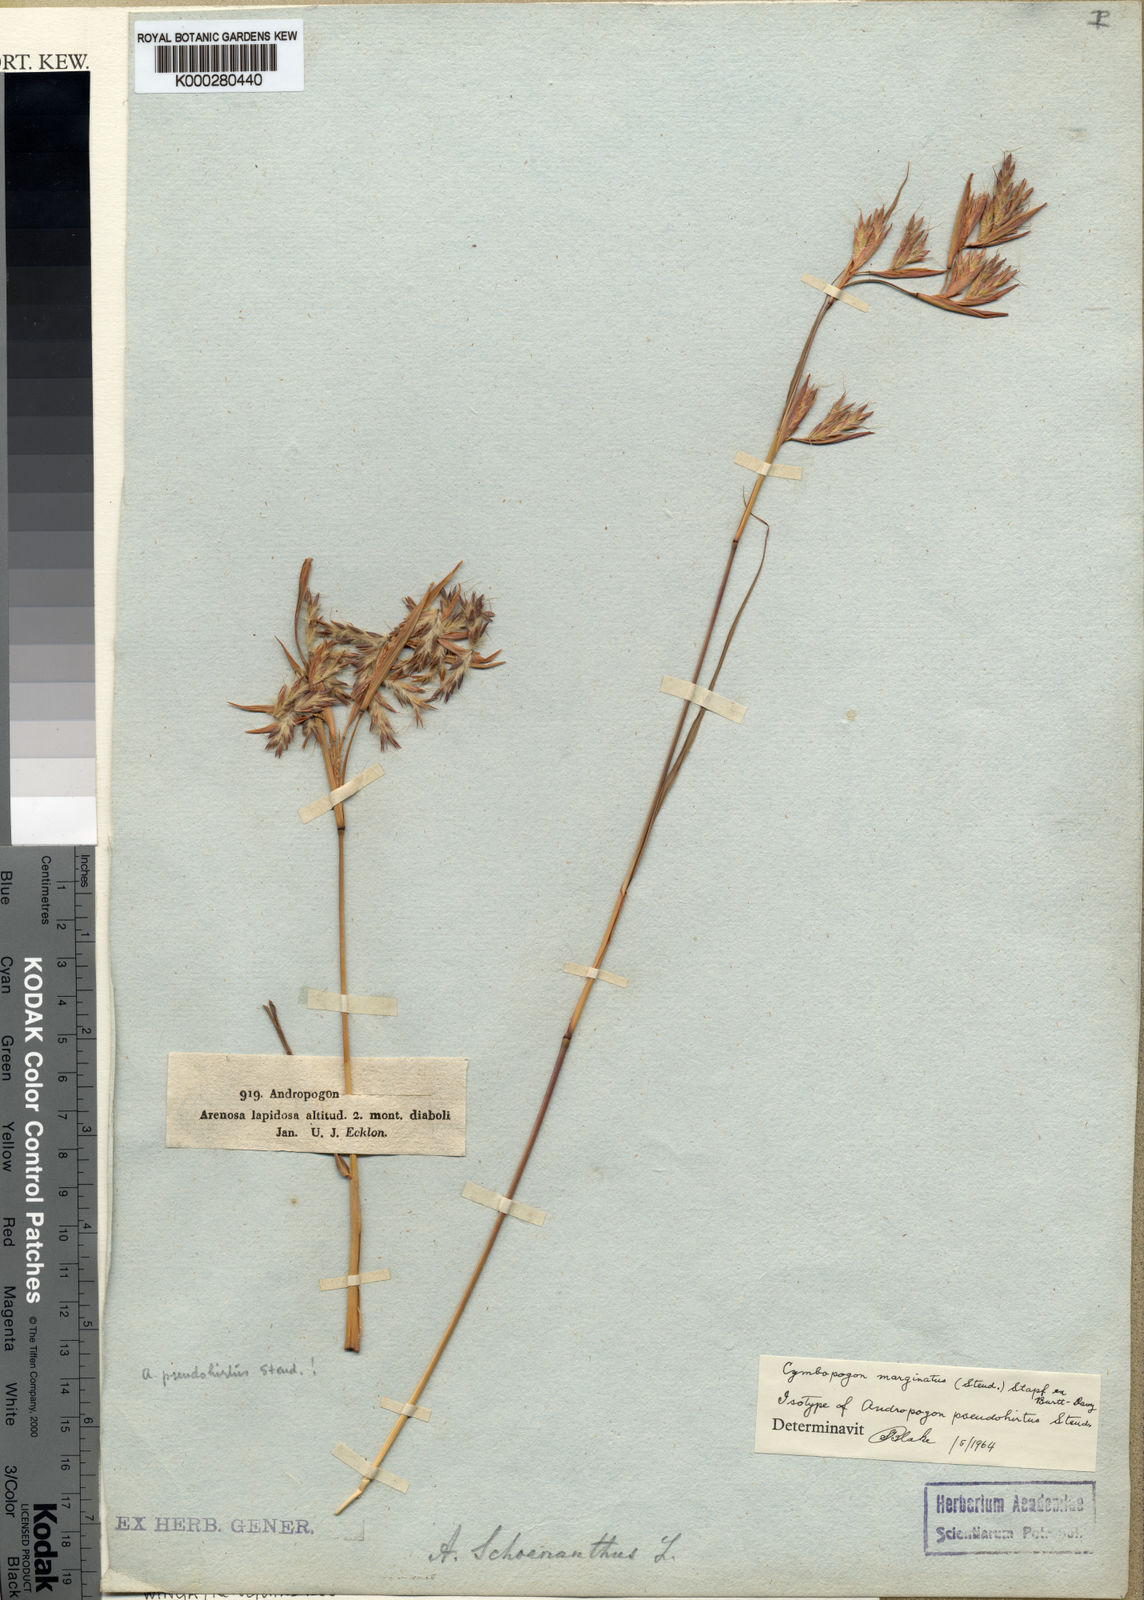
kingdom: Plantae
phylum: Tracheophyta
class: Liliopsida
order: Poales
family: Poaceae
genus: Cymbopogon
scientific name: Cymbopogon nardus
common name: Giant turpentine grass
